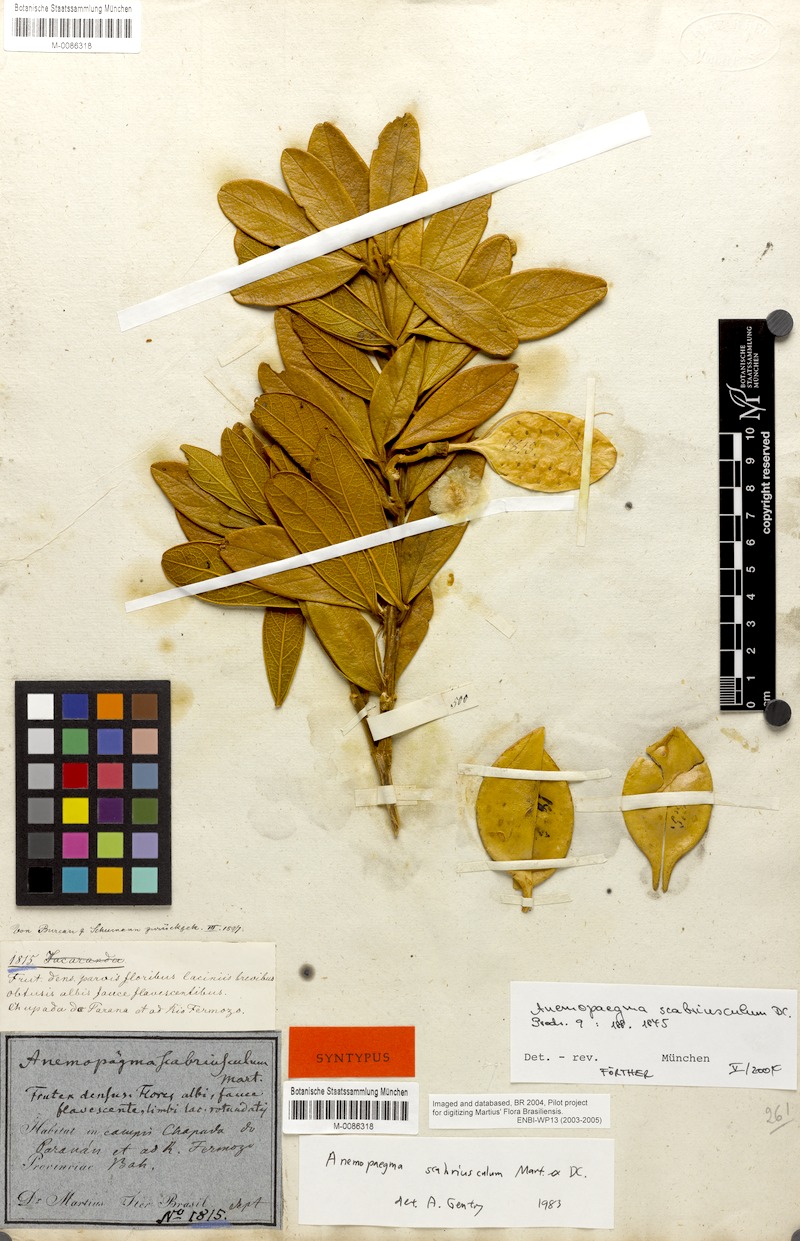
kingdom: Plantae
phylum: Tracheophyta
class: Magnoliopsida
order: Lamiales
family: Bignoniaceae
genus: Anemopaegma
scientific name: Anemopaegma scabriusculum
